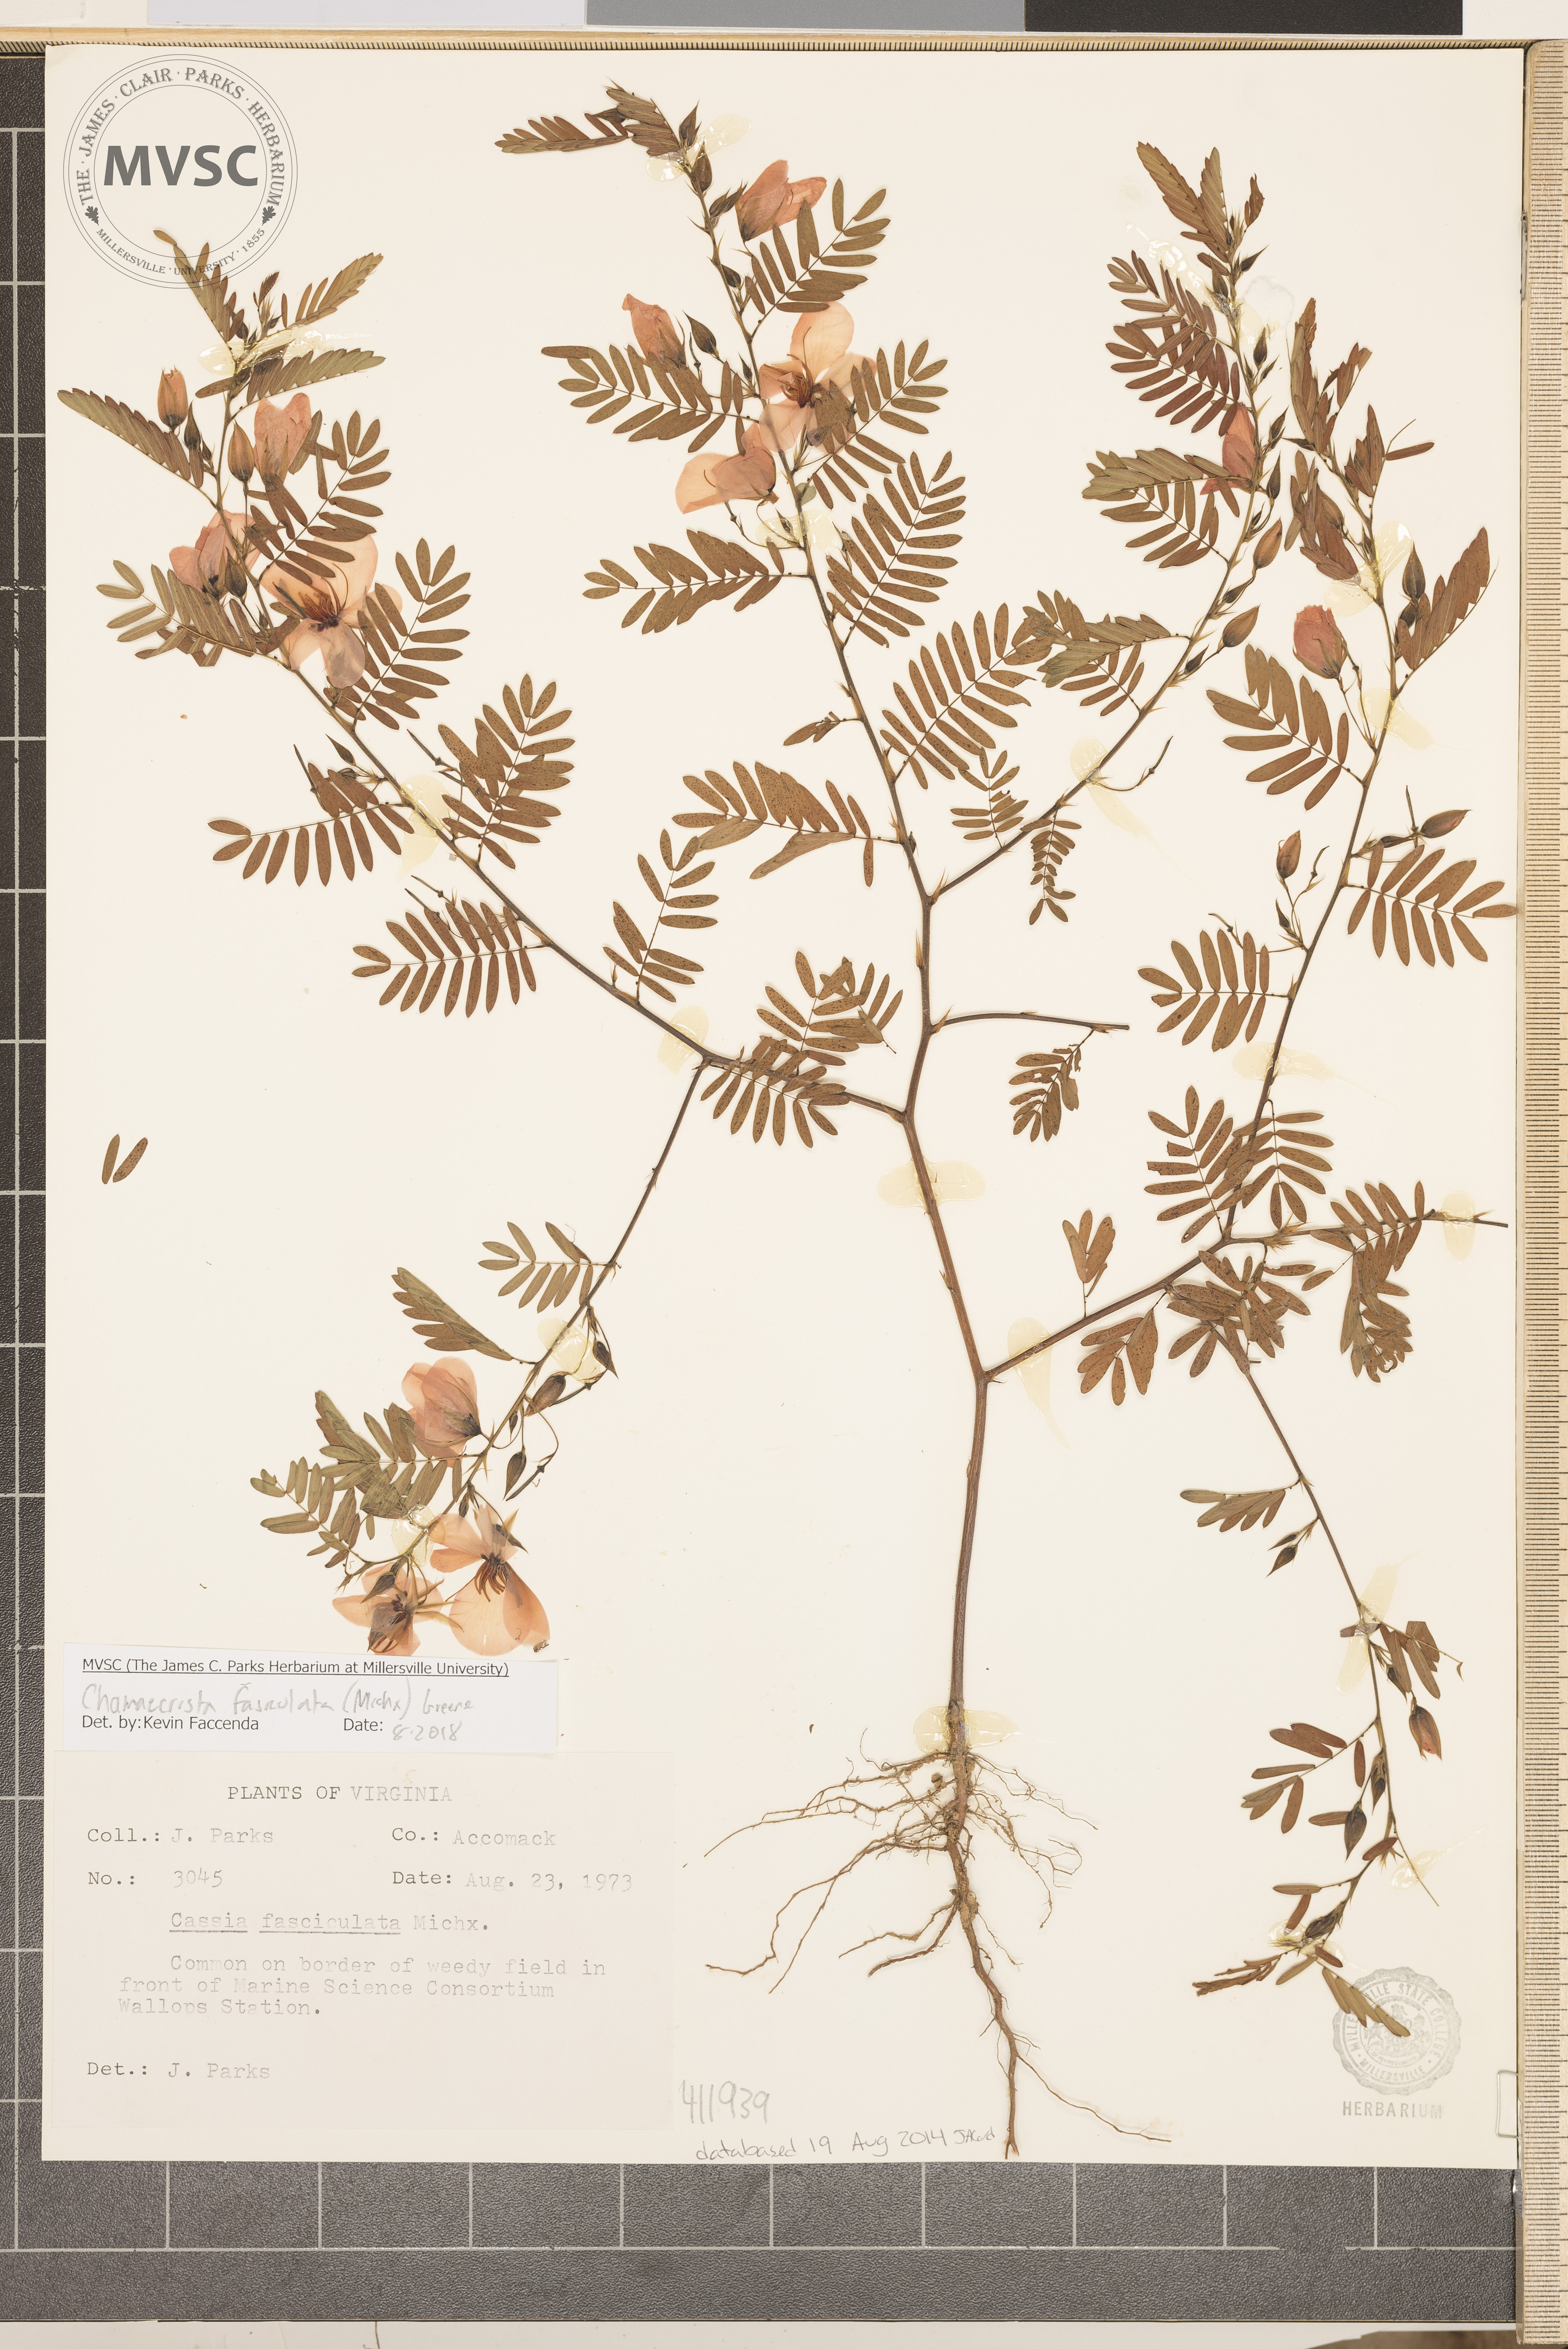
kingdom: Plantae
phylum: Tracheophyta
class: Magnoliopsida
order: Fabales
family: Fabaceae
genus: Chamaecrista
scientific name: Chamaecrista fasciculata
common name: Golden cassia
